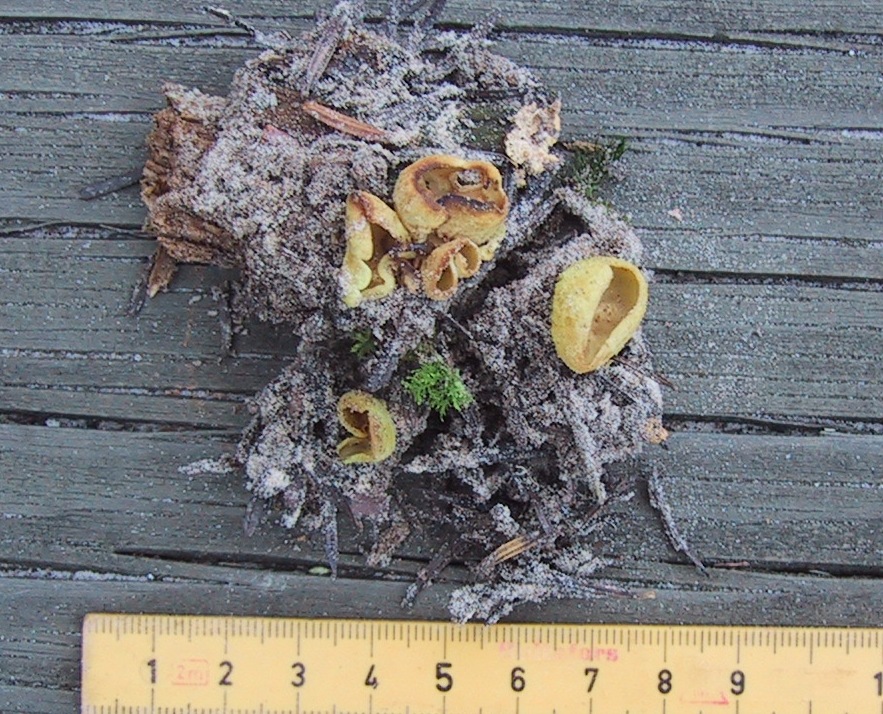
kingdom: Fungi
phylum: Ascomycota
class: Pezizomycetes
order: Pezizales
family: Otideaceae
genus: Otidea
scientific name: Otidea phlebophora
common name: året ørebæger
